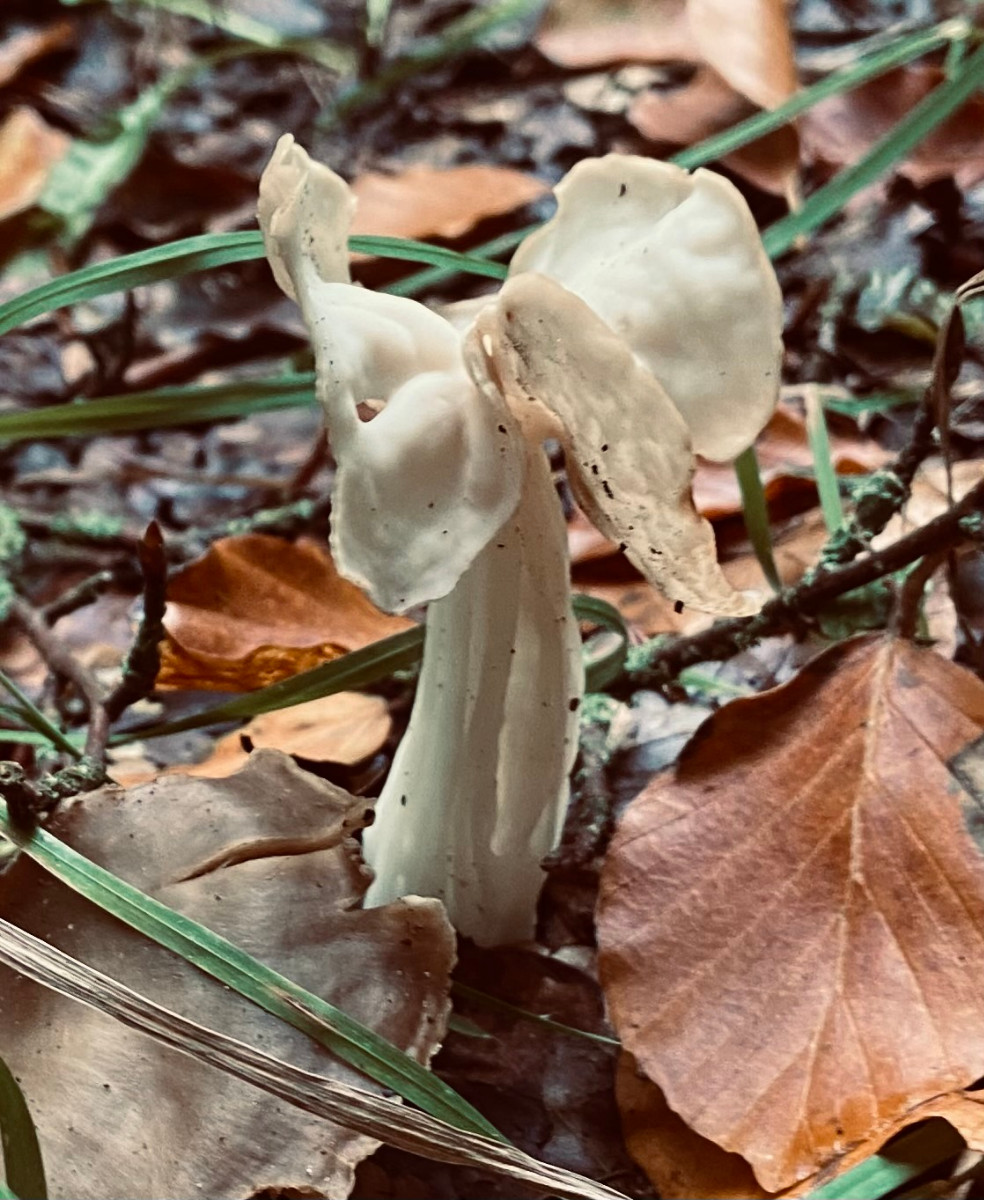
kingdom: Fungi
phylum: Ascomycota
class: Pezizomycetes
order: Pezizales
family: Helvellaceae
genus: Helvella
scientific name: Helvella crispa
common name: kruset foldhat
